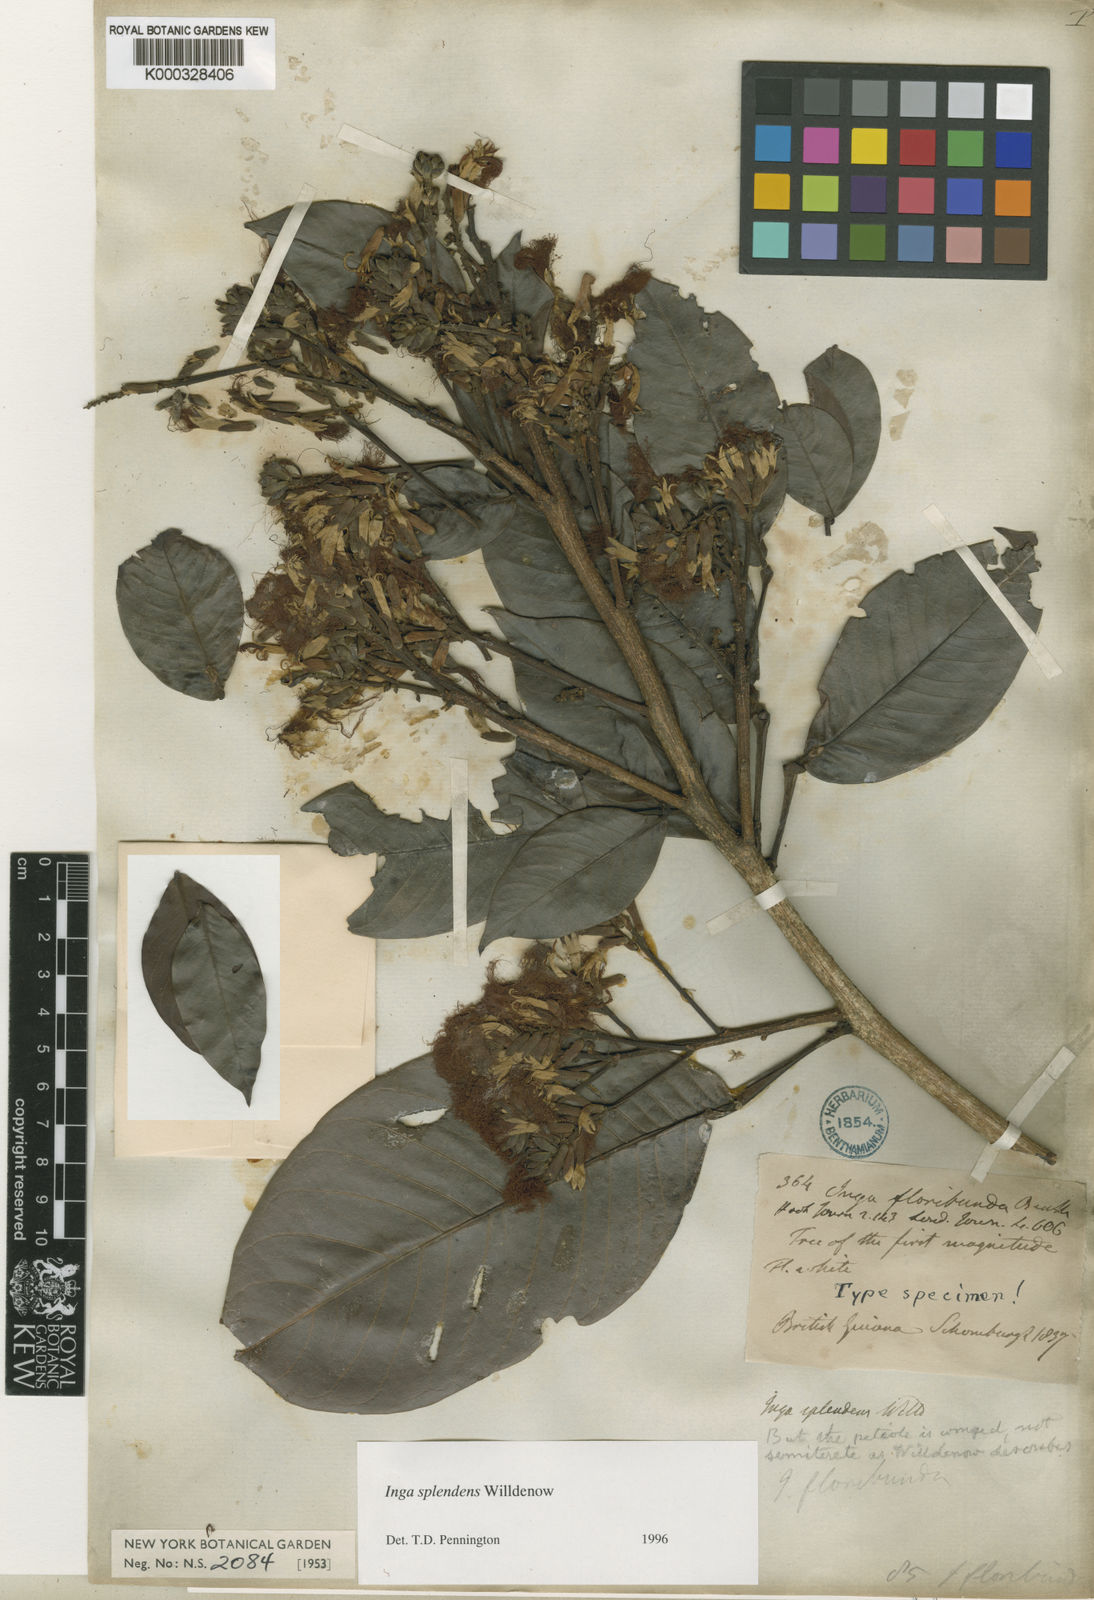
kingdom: Plantae
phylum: Tracheophyta
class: Magnoliopsida
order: Fabales
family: Fabaceae
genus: Inga
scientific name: Inga splendens
